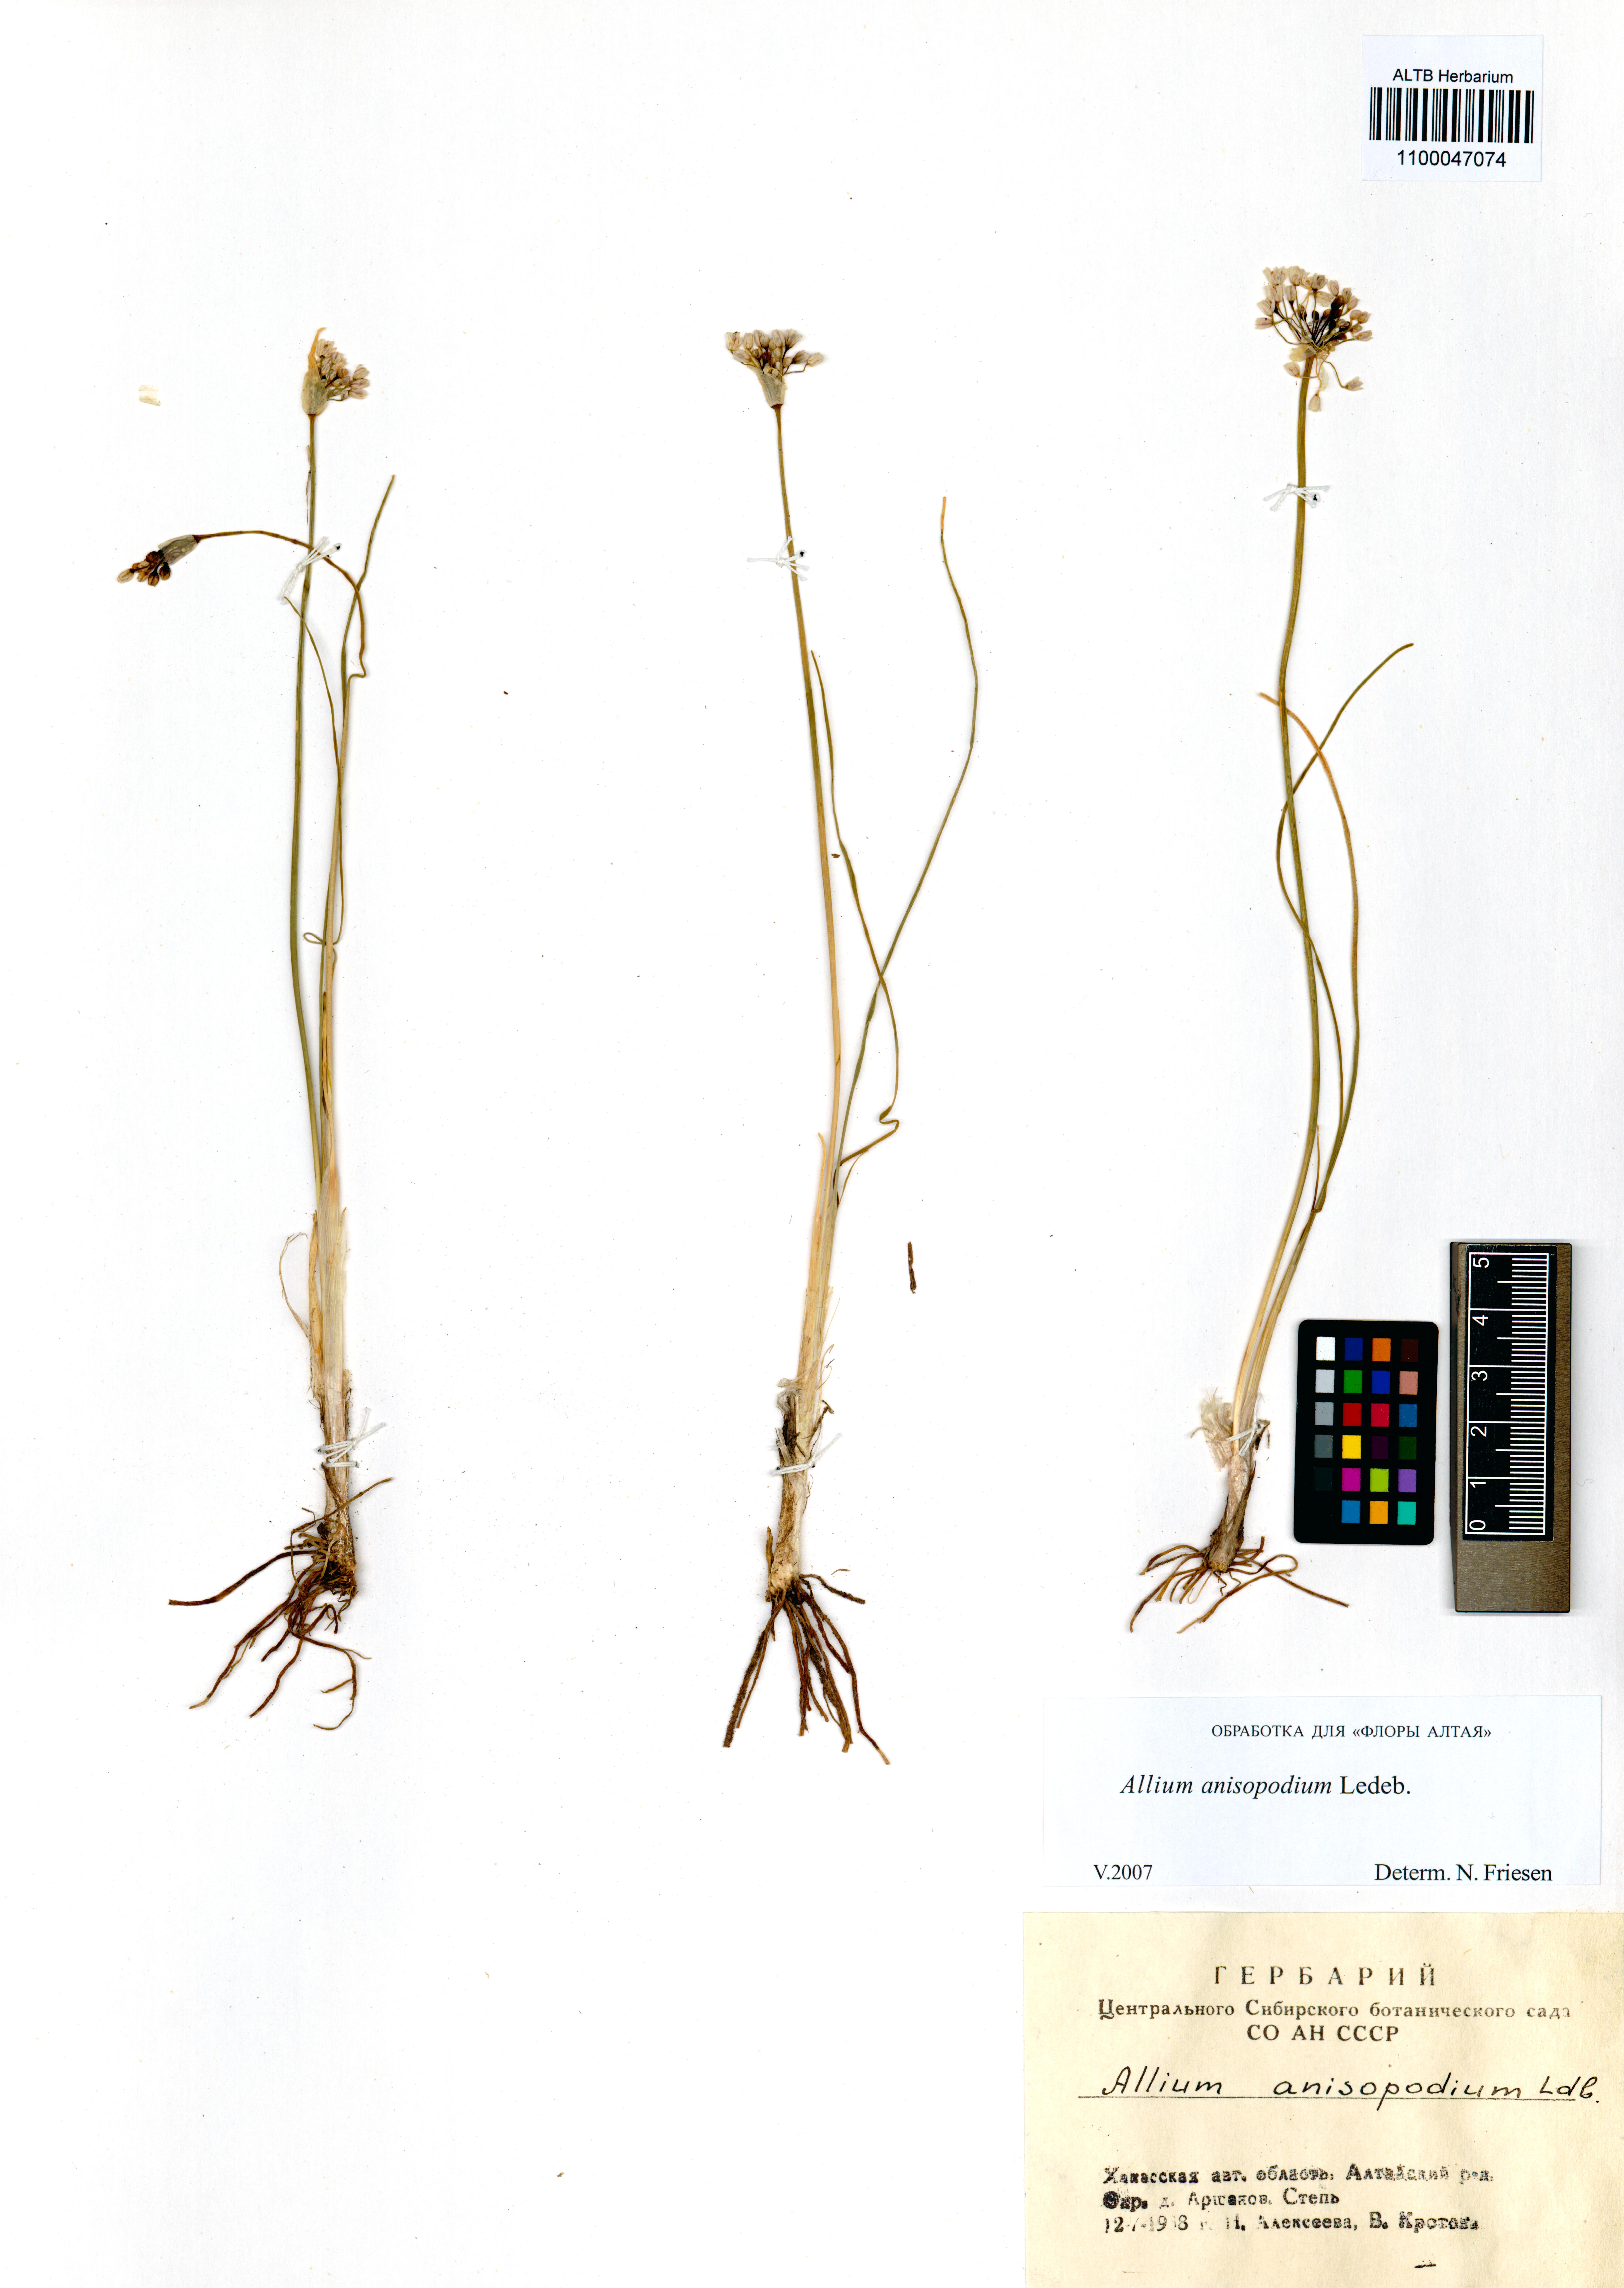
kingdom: Plantae
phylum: Tracheophyta
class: Liliopsida
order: Asparagales
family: Amaryllidaceae
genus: Allium
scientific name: Allium anisopodium
